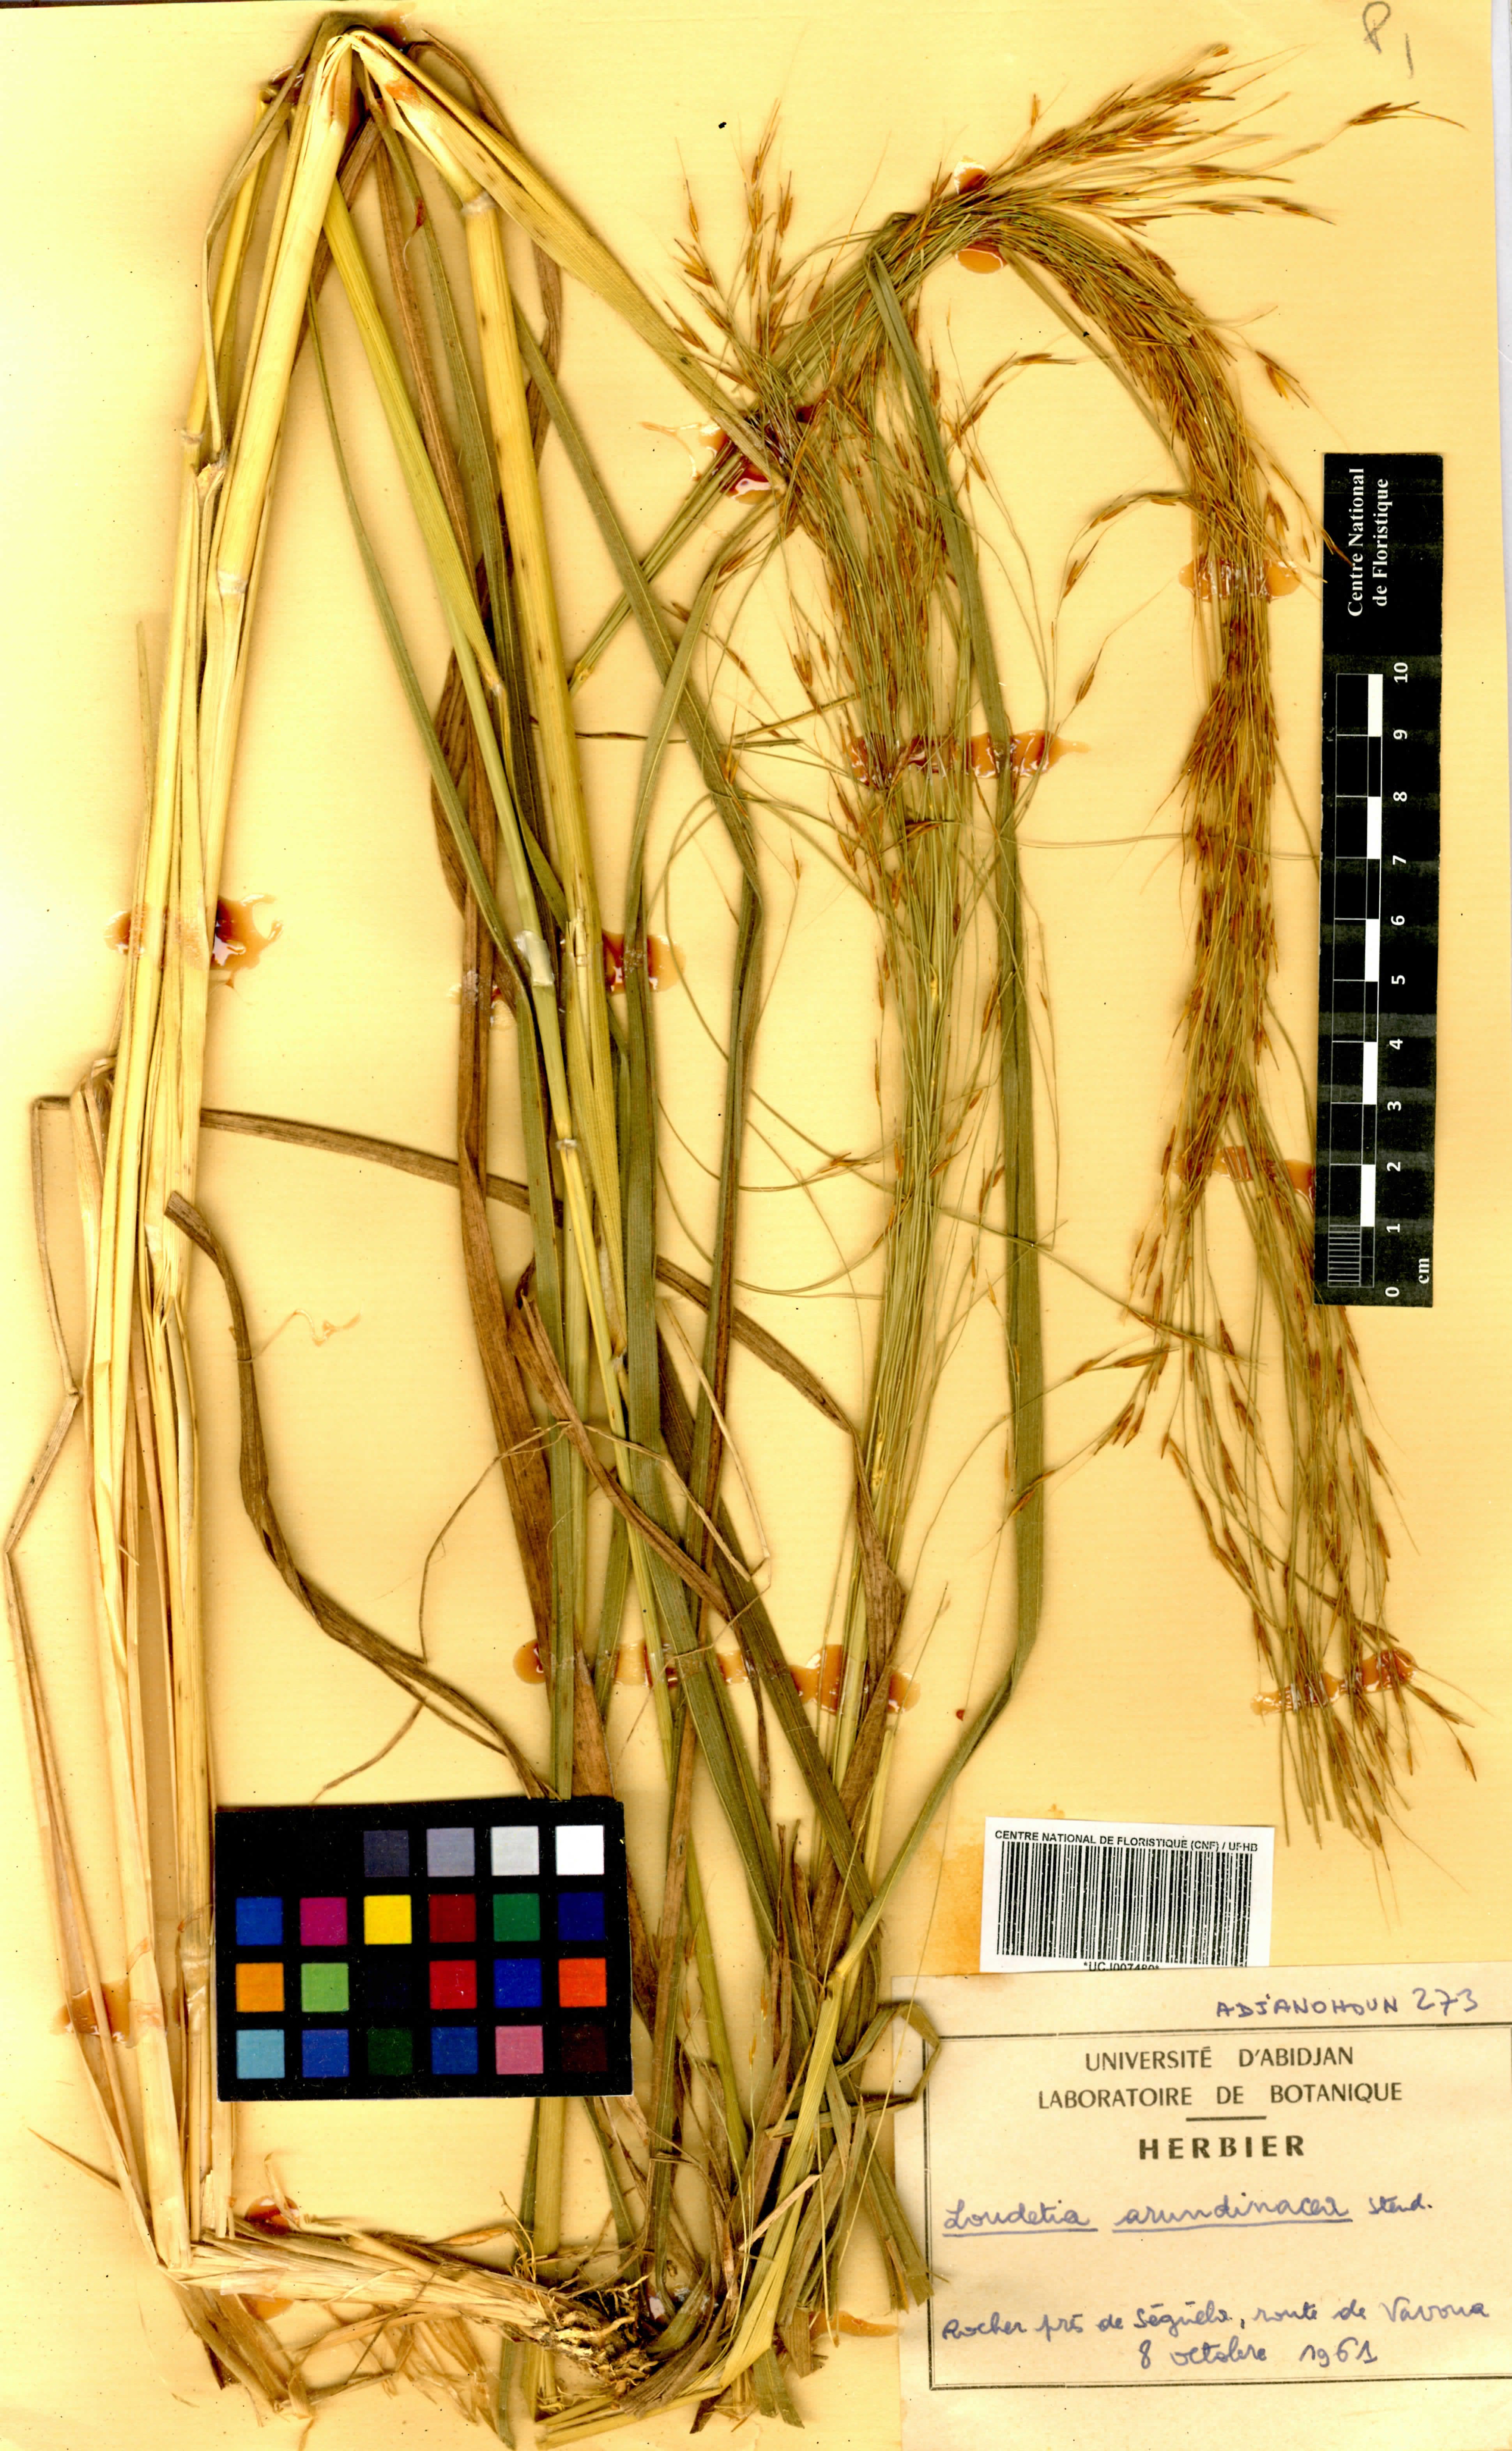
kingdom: Plantae
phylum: Tracheophyta
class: Liliopsida
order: Poales
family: Poaceae
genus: Loudetia
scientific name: Loudetia arundinacea
